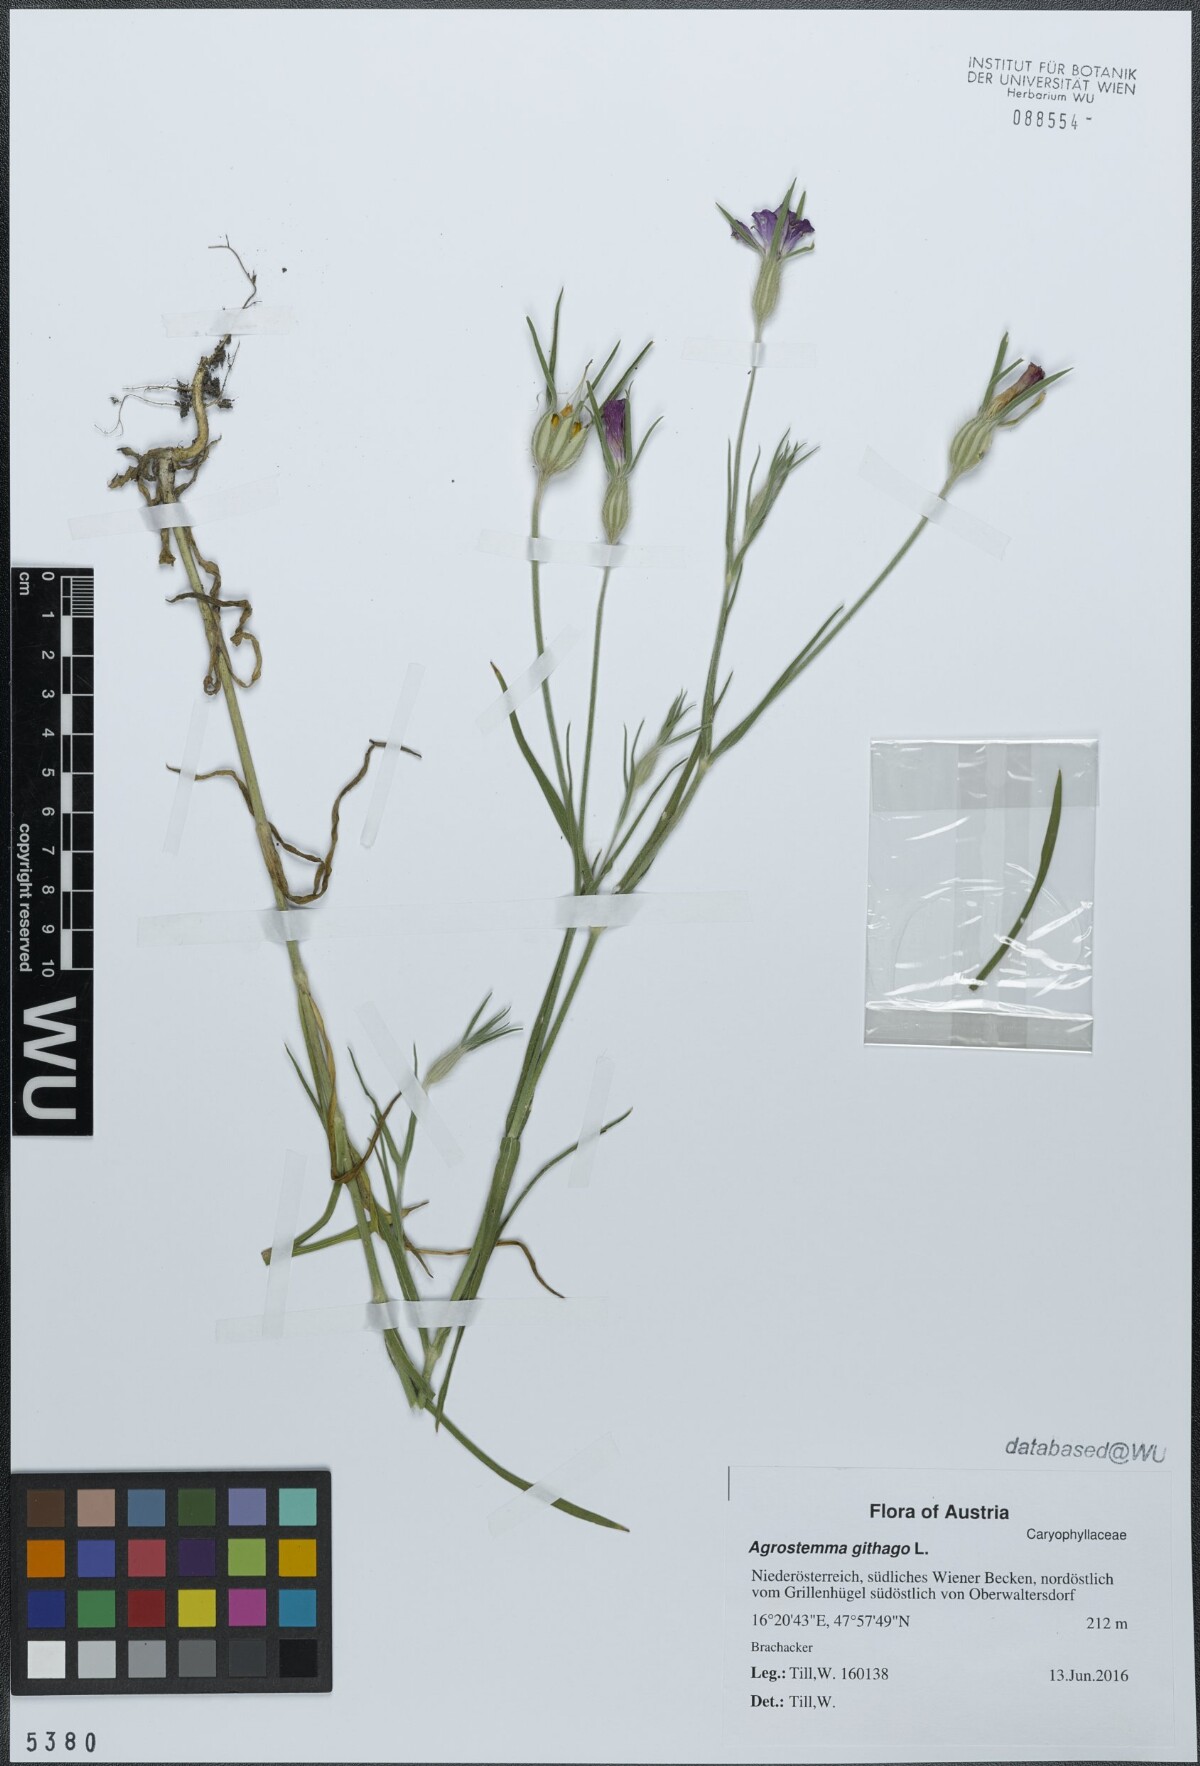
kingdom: Plantae
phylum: Tracheophyta
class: Magnoliopsida
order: Caryophyllales
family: Caryophyllaceae
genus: Agrostemma
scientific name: Agrostemma githago
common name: Common corncockle
